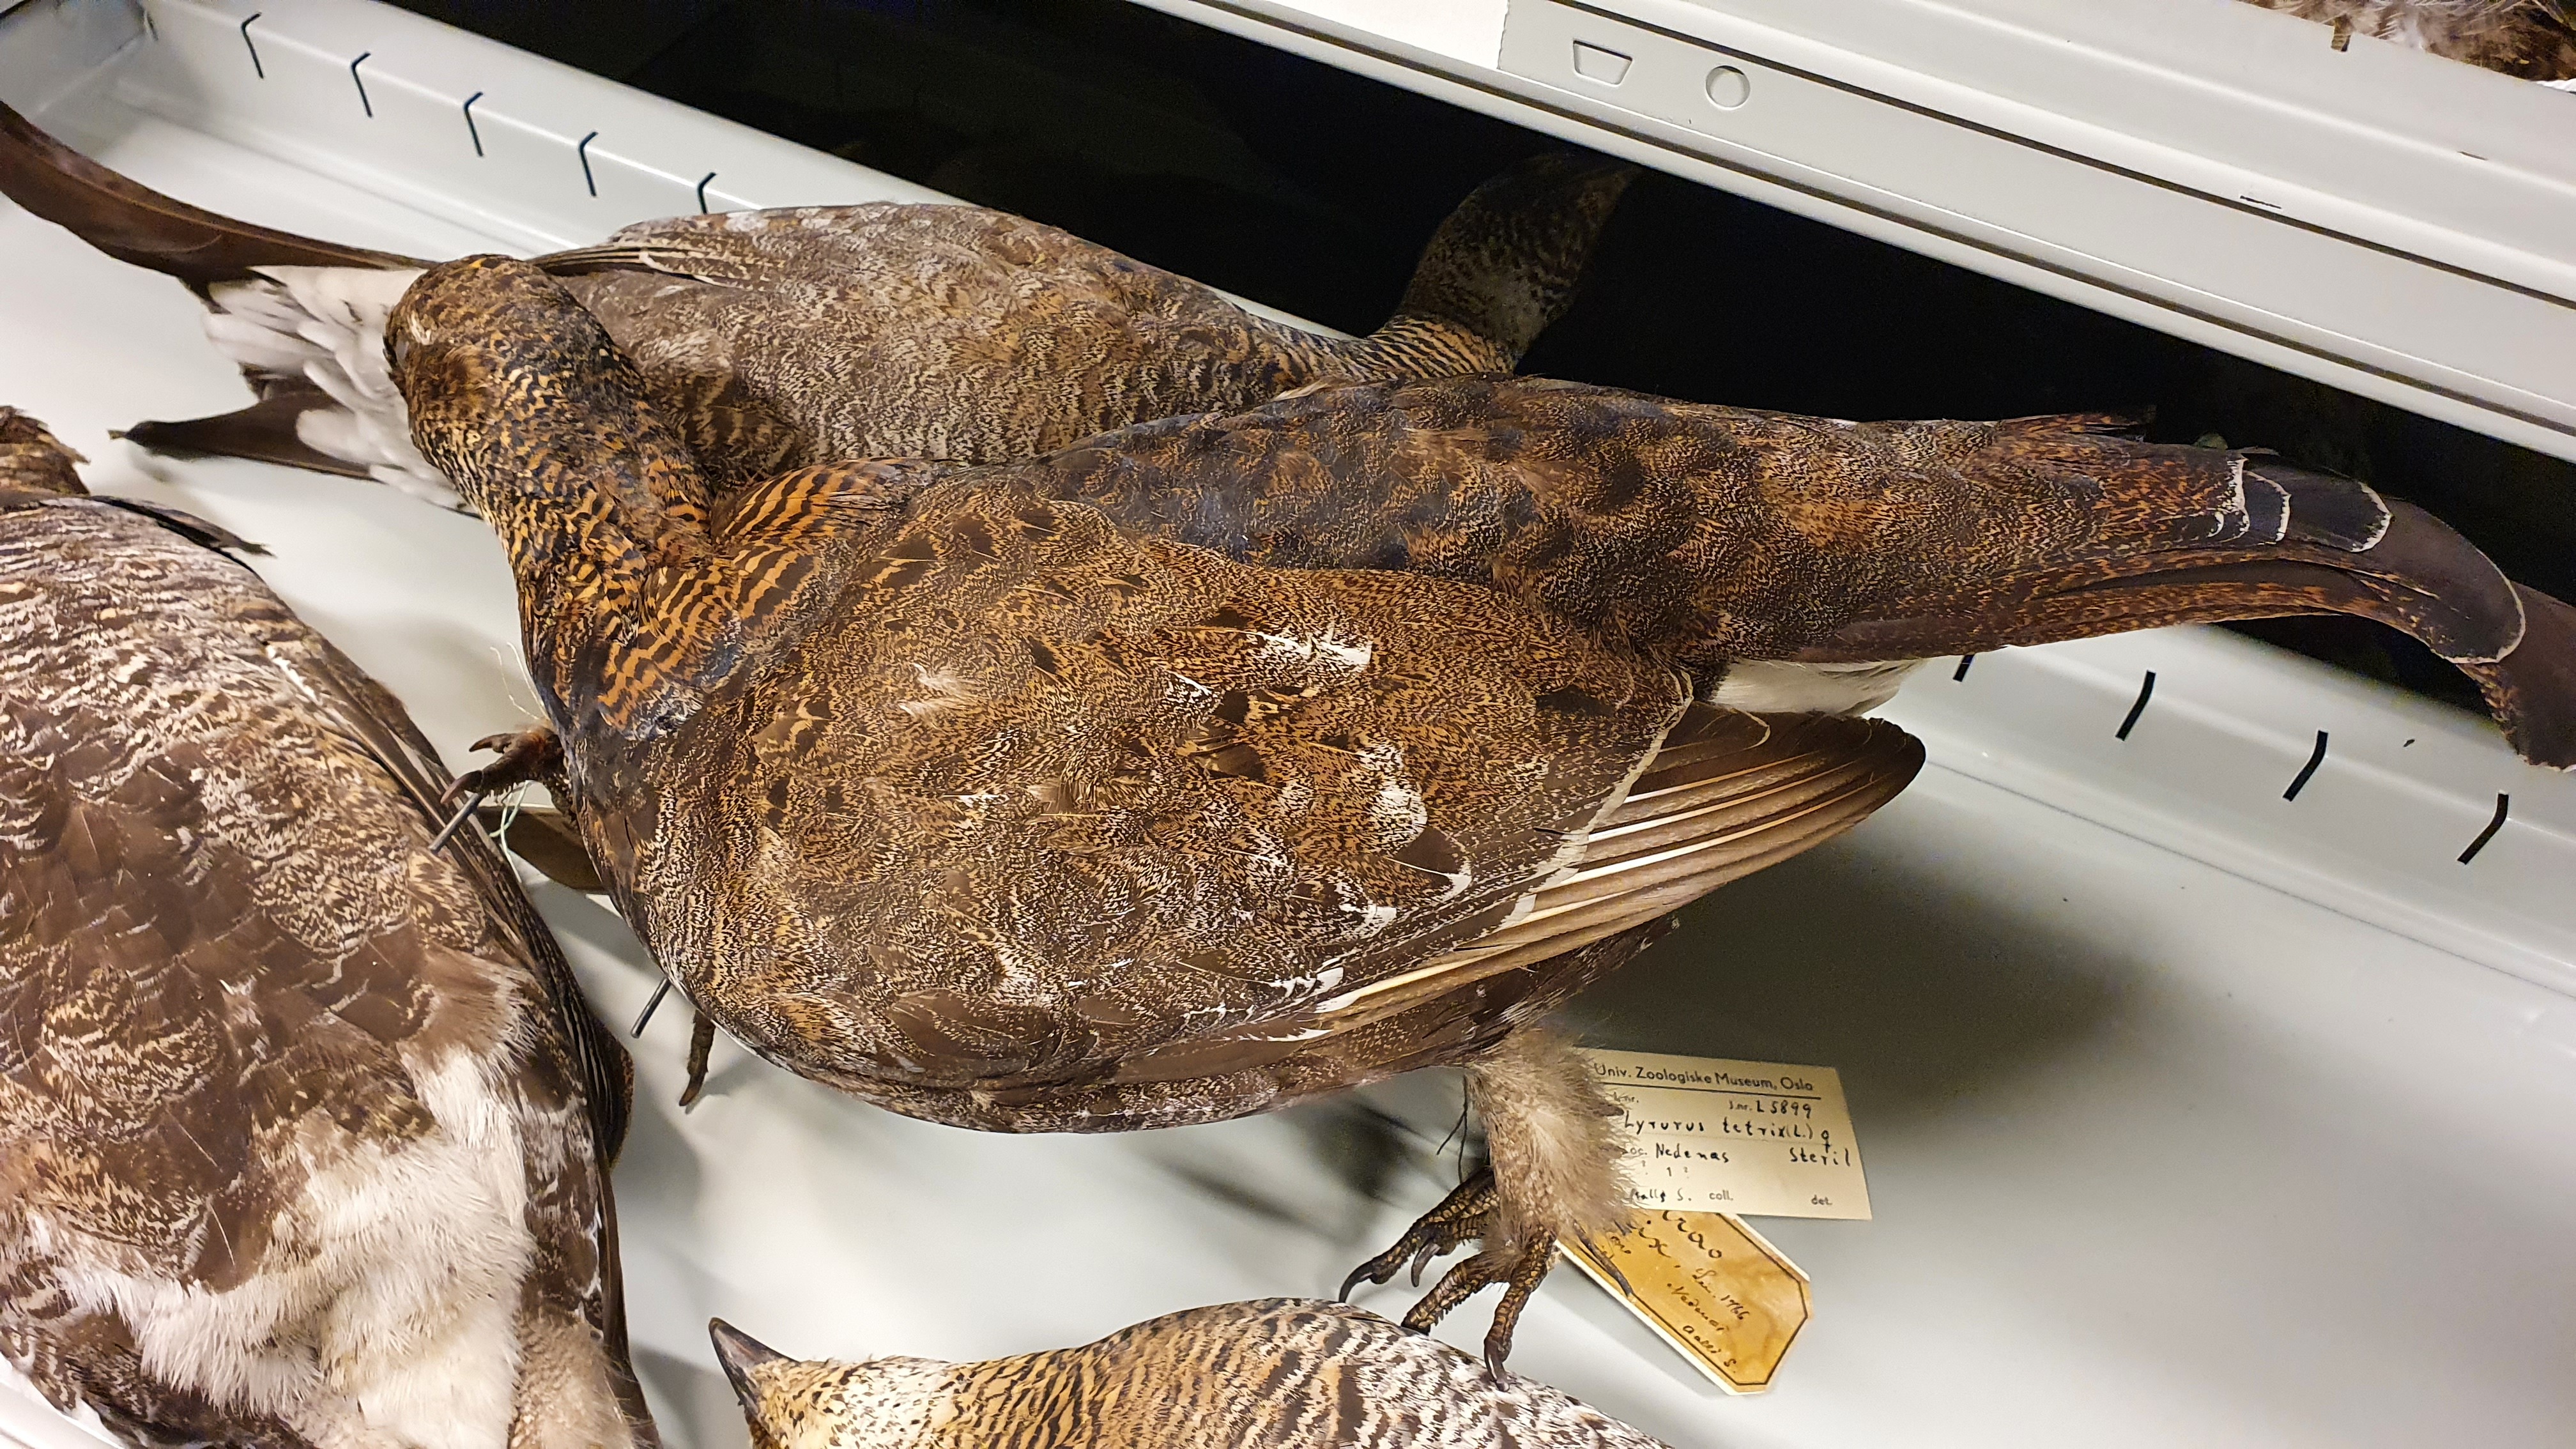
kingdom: Animalia
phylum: Chordata
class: Aves
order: Galliformes
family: Phasianidae
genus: Lyrurus
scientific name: Lyrurus tetrix
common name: Black grouse
